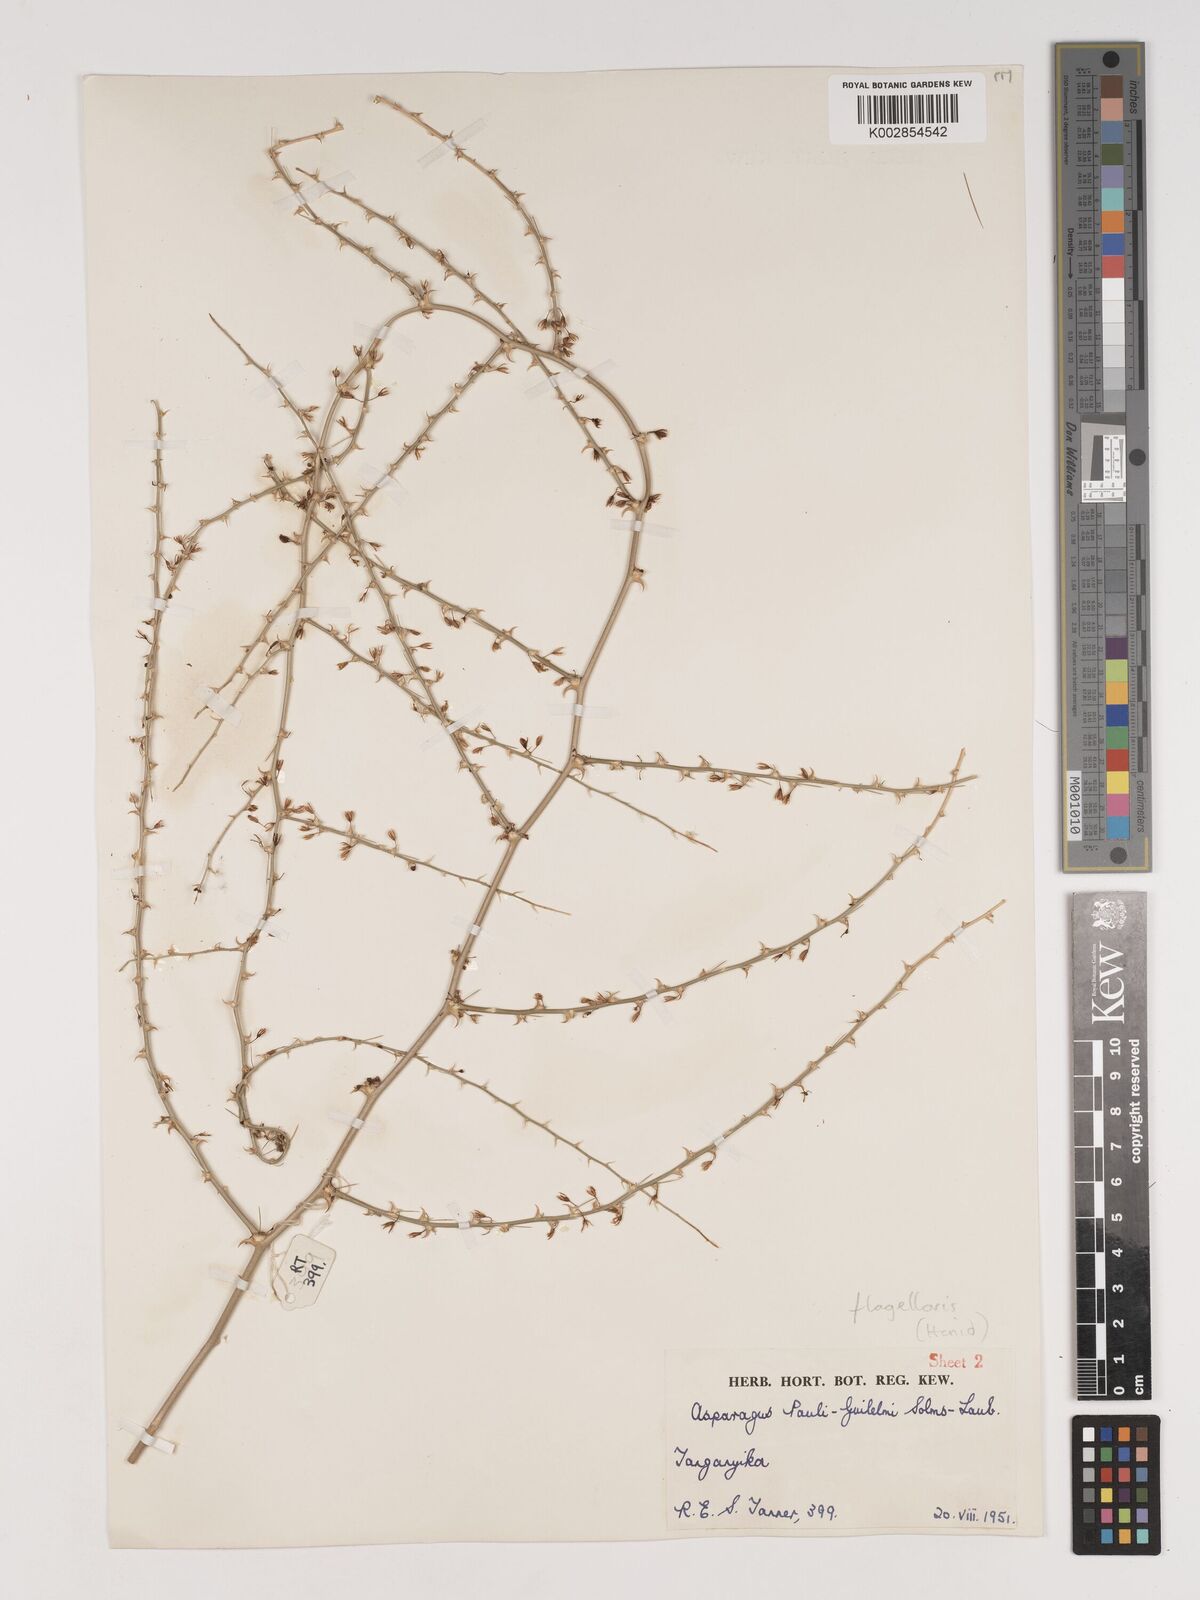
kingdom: Plantae
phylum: Tracheophyta
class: Liliopsida
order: Asparagales
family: Asparagaceae
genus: Asparagus
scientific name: Asparagus flagellaris
